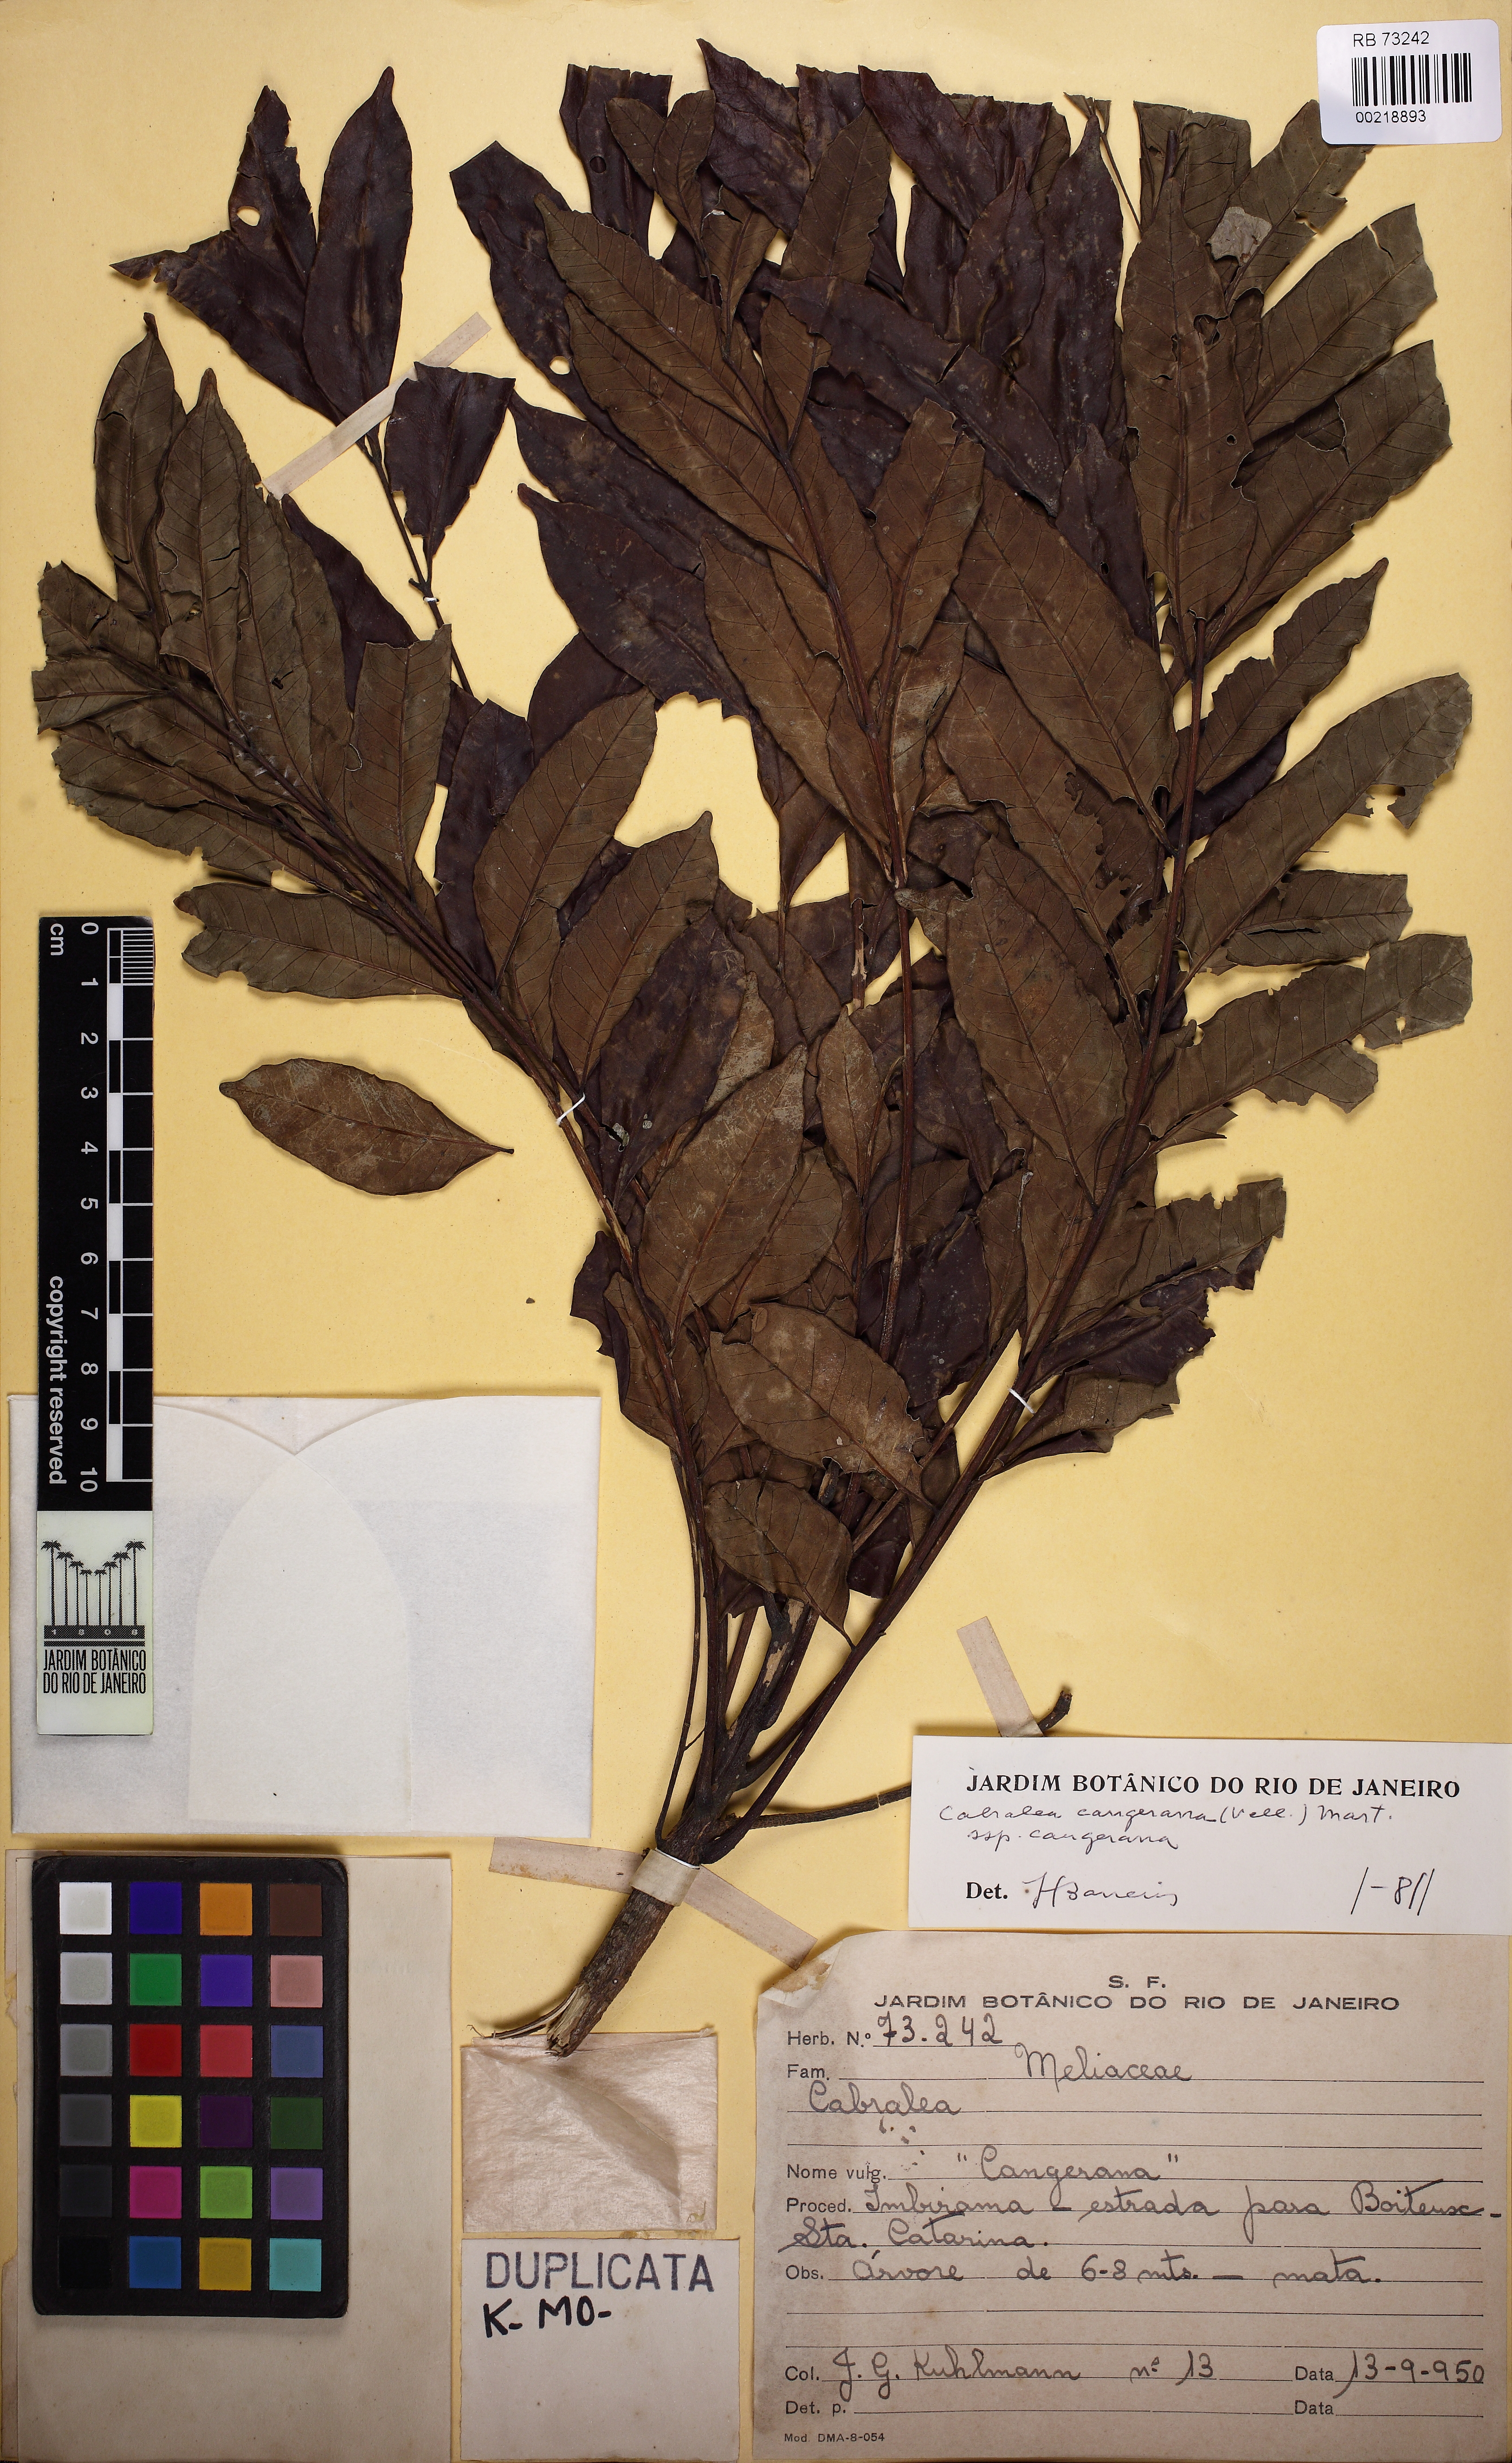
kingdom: Plantae
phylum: Tracheophyta
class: Magnoliopsida
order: Sapindales
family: Meliaceae
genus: Cabralea
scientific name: Cabralea canjerana
